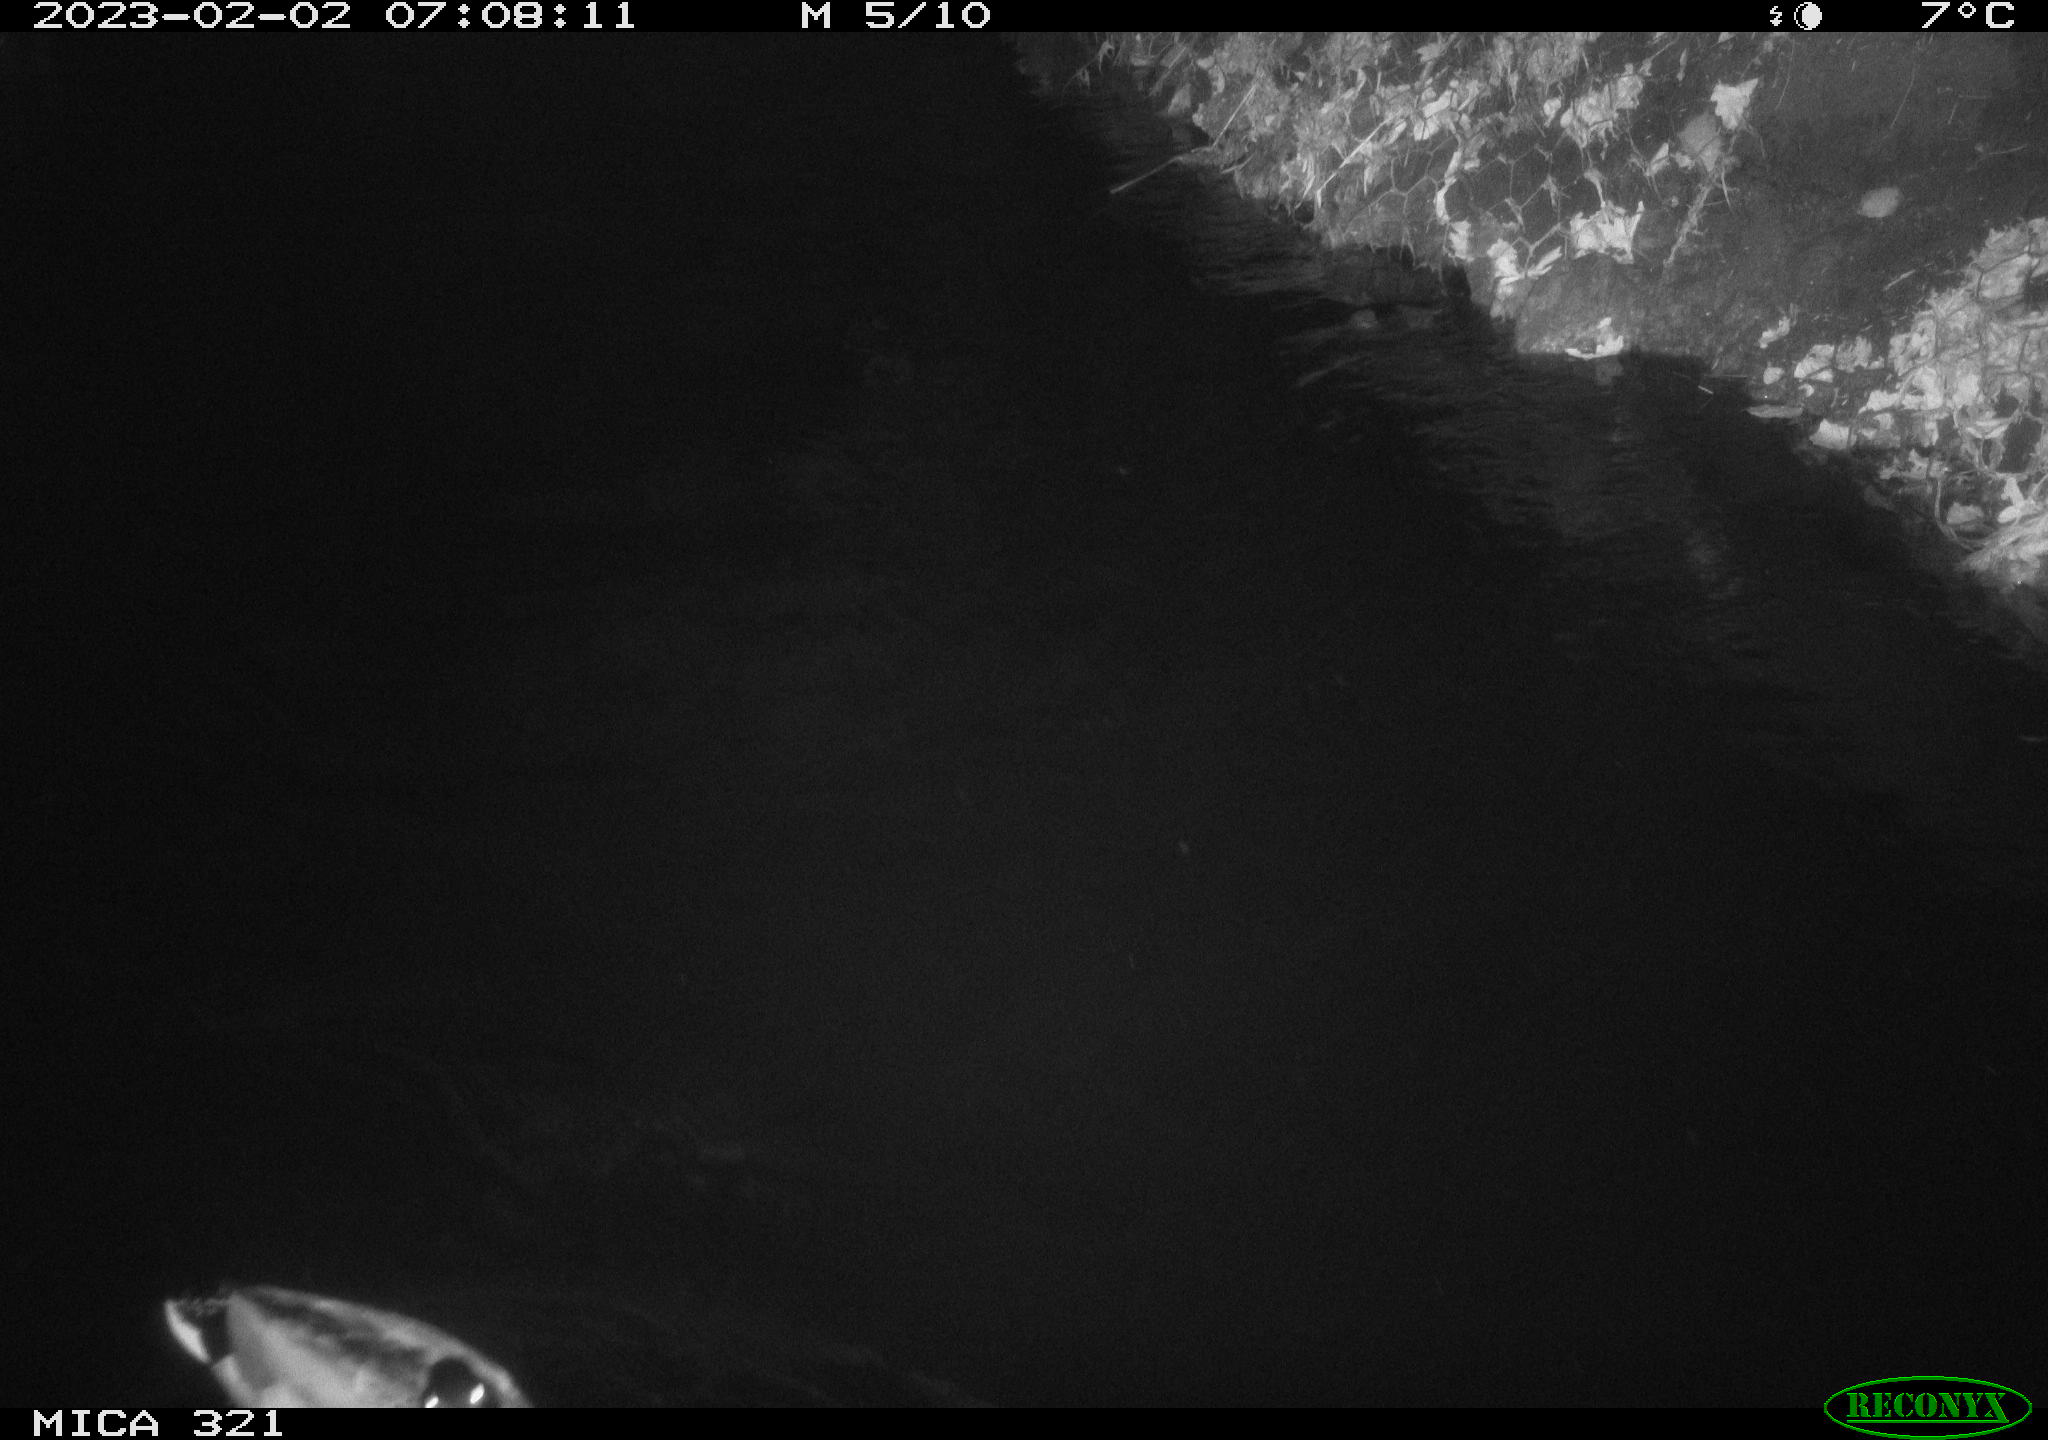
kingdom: Animalia
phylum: Chordata
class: Aves
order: Anseriformes
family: Anatidae
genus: Anas
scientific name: Anas
